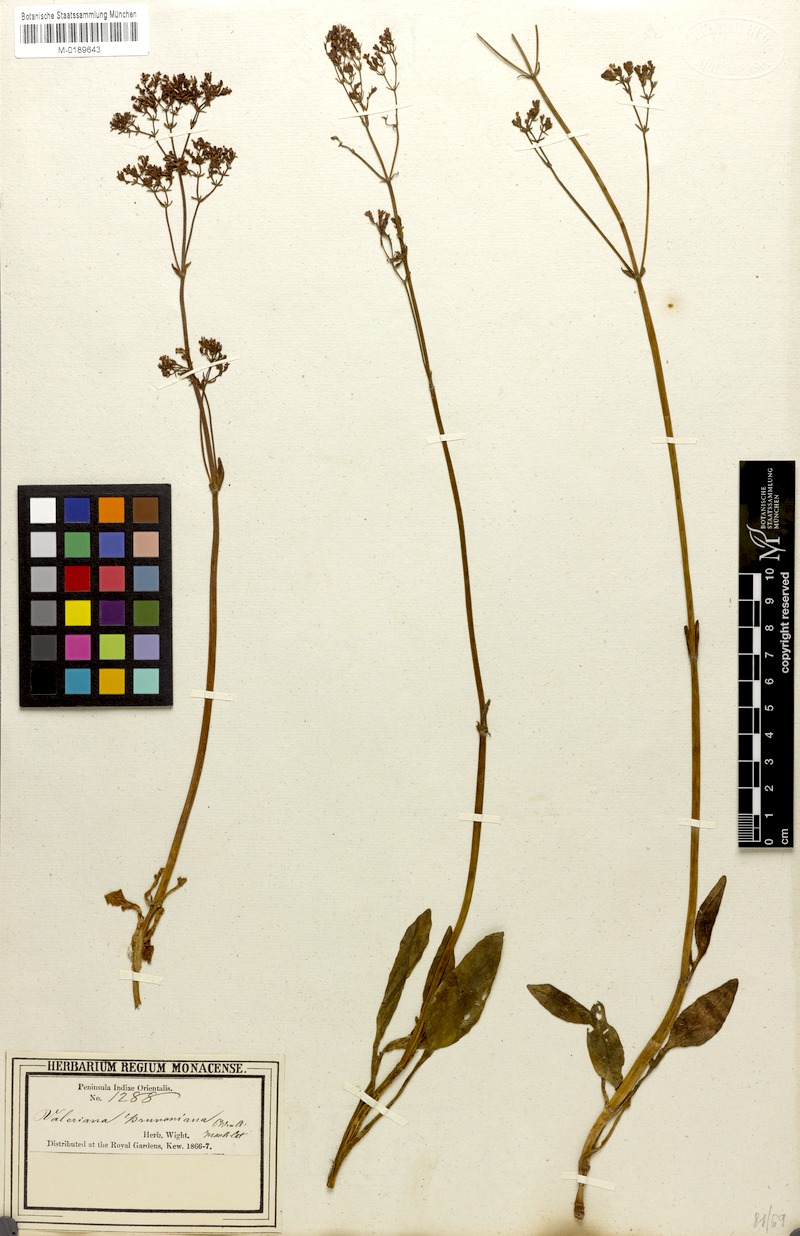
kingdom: Plantae
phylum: Tracheophyta
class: Magnoliopsida
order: Dipsacales
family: Caprifoliaceae
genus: Valeriana
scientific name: Valeriana leschenaultii
